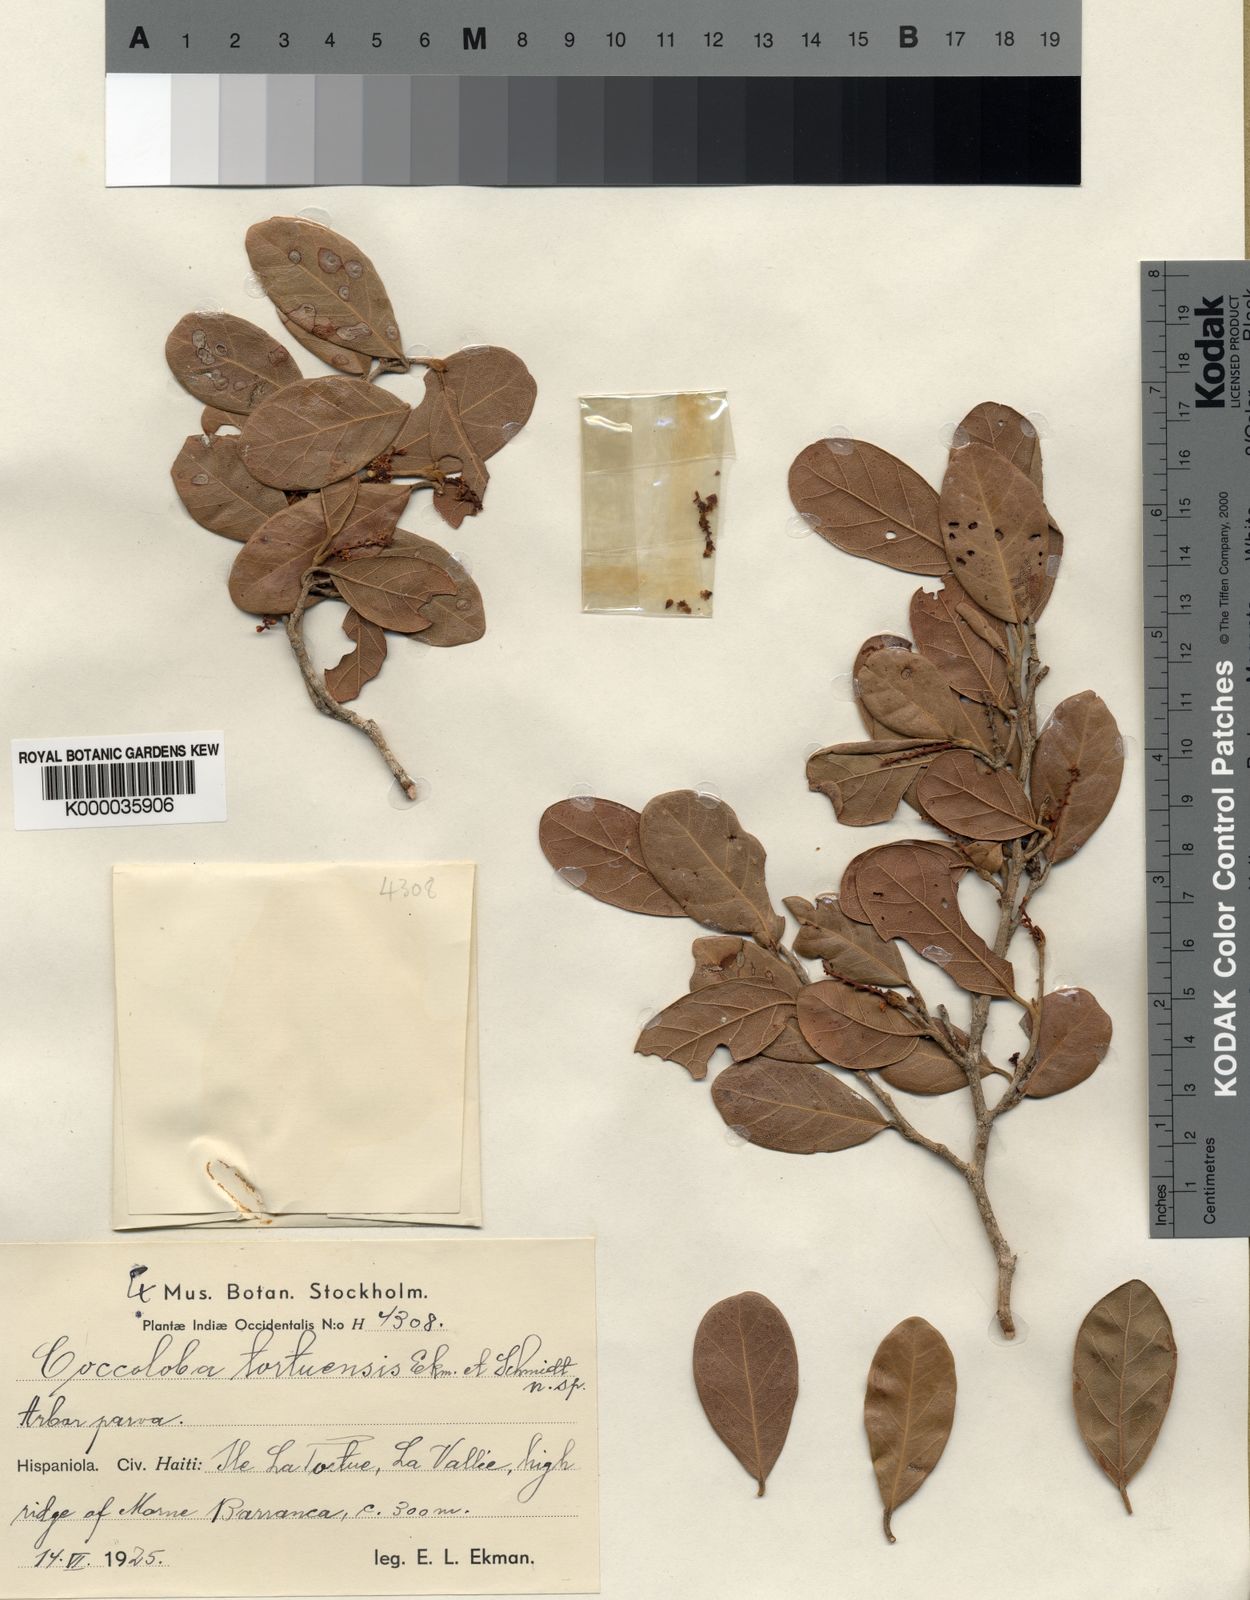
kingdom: Plantae
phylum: Tracheophyta
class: Magnoliopsida
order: Caryophyllales
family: Polygonaceae
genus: Coccoloba
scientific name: Coccoloba buchii
